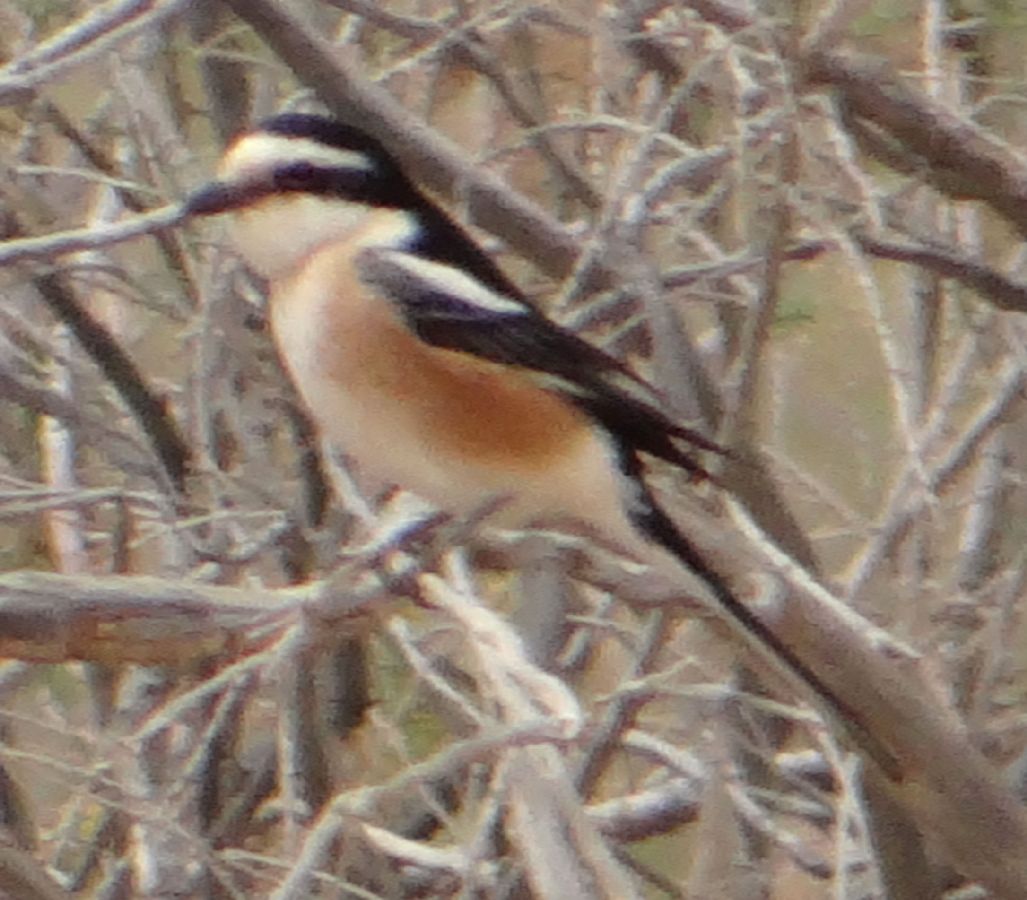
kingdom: Animalia
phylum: Chordata
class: Aves
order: Passeriformes
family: Laniidae
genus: Lanius
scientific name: Lanius nubicus
